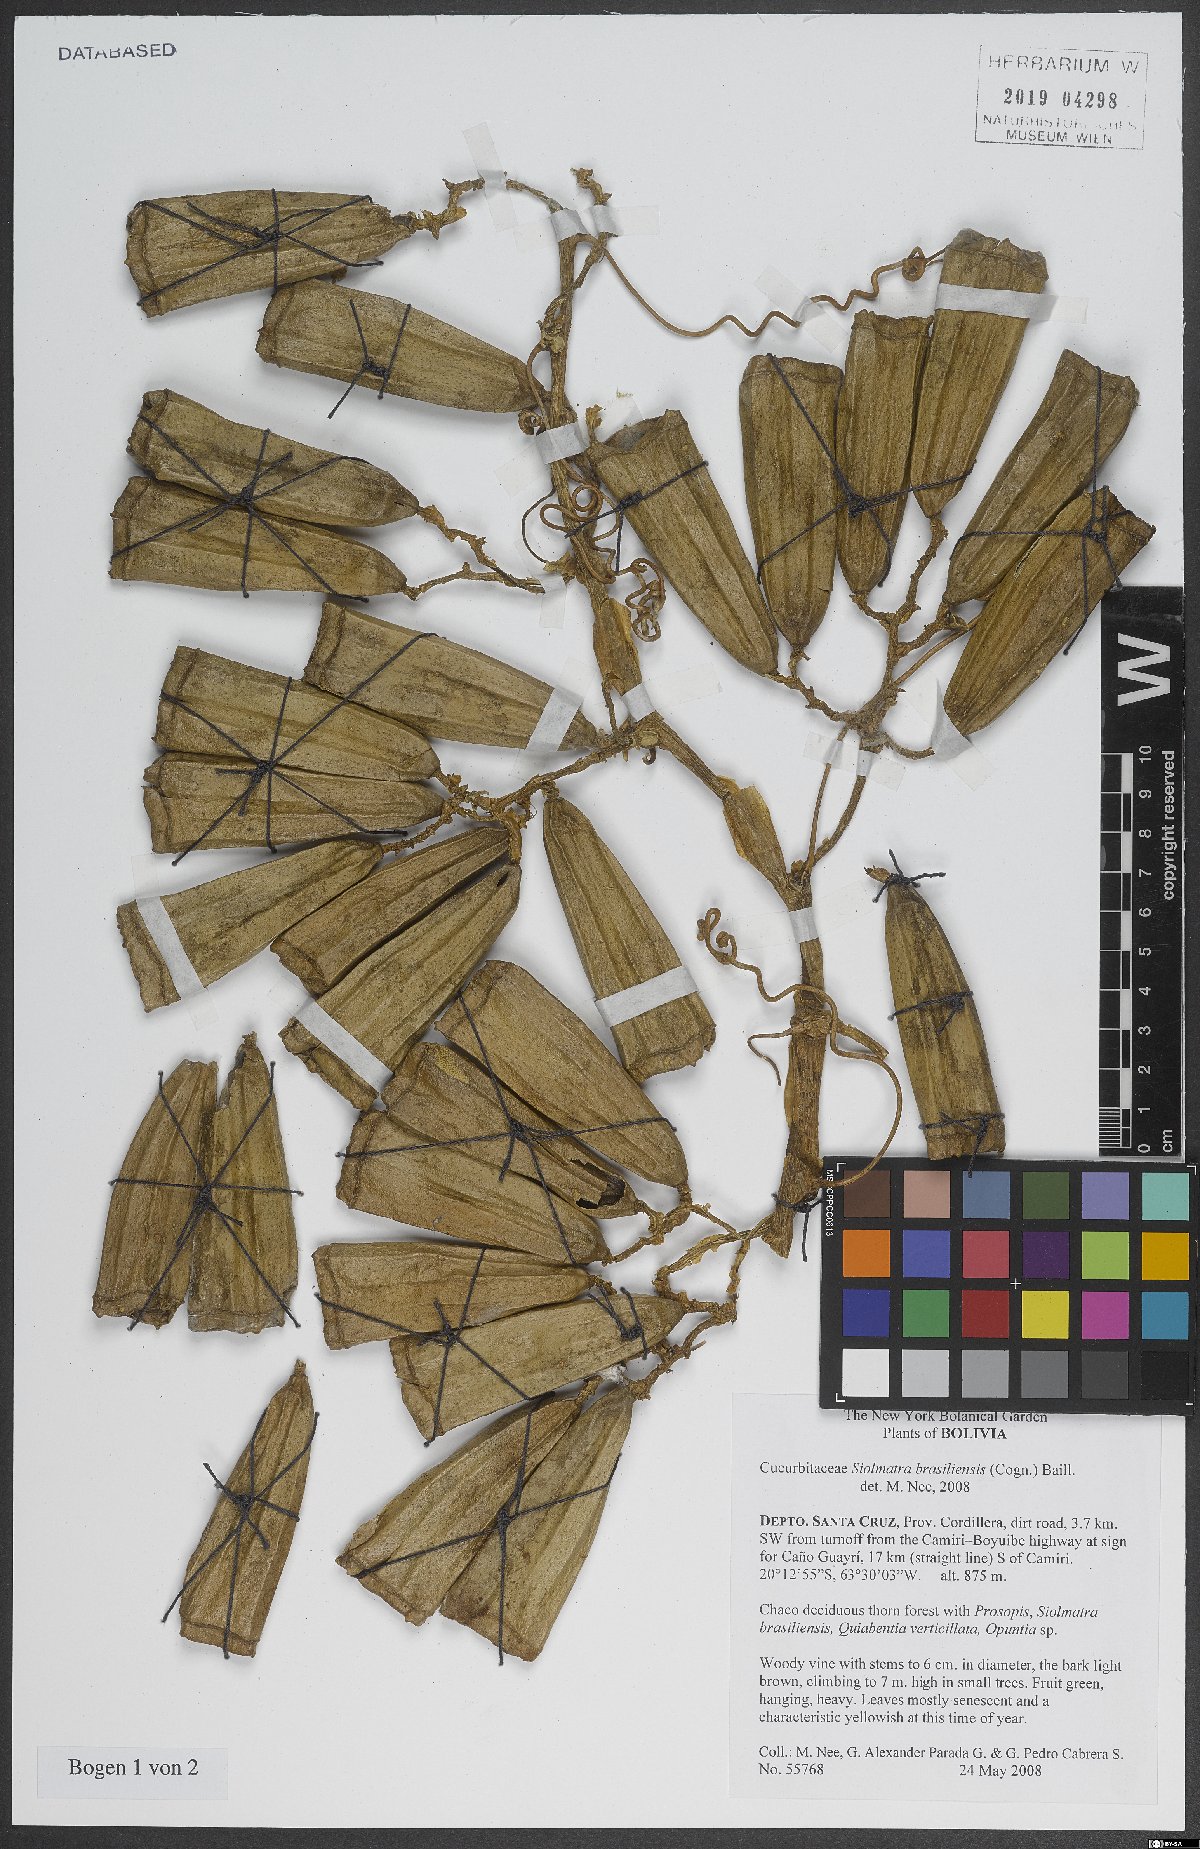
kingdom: Plantae
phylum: Tracheophyta
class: Magnoliopsida
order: Cucurbitales
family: Cucurbitaceae
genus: Siolmatra
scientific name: Siolmatra brasiliensis
